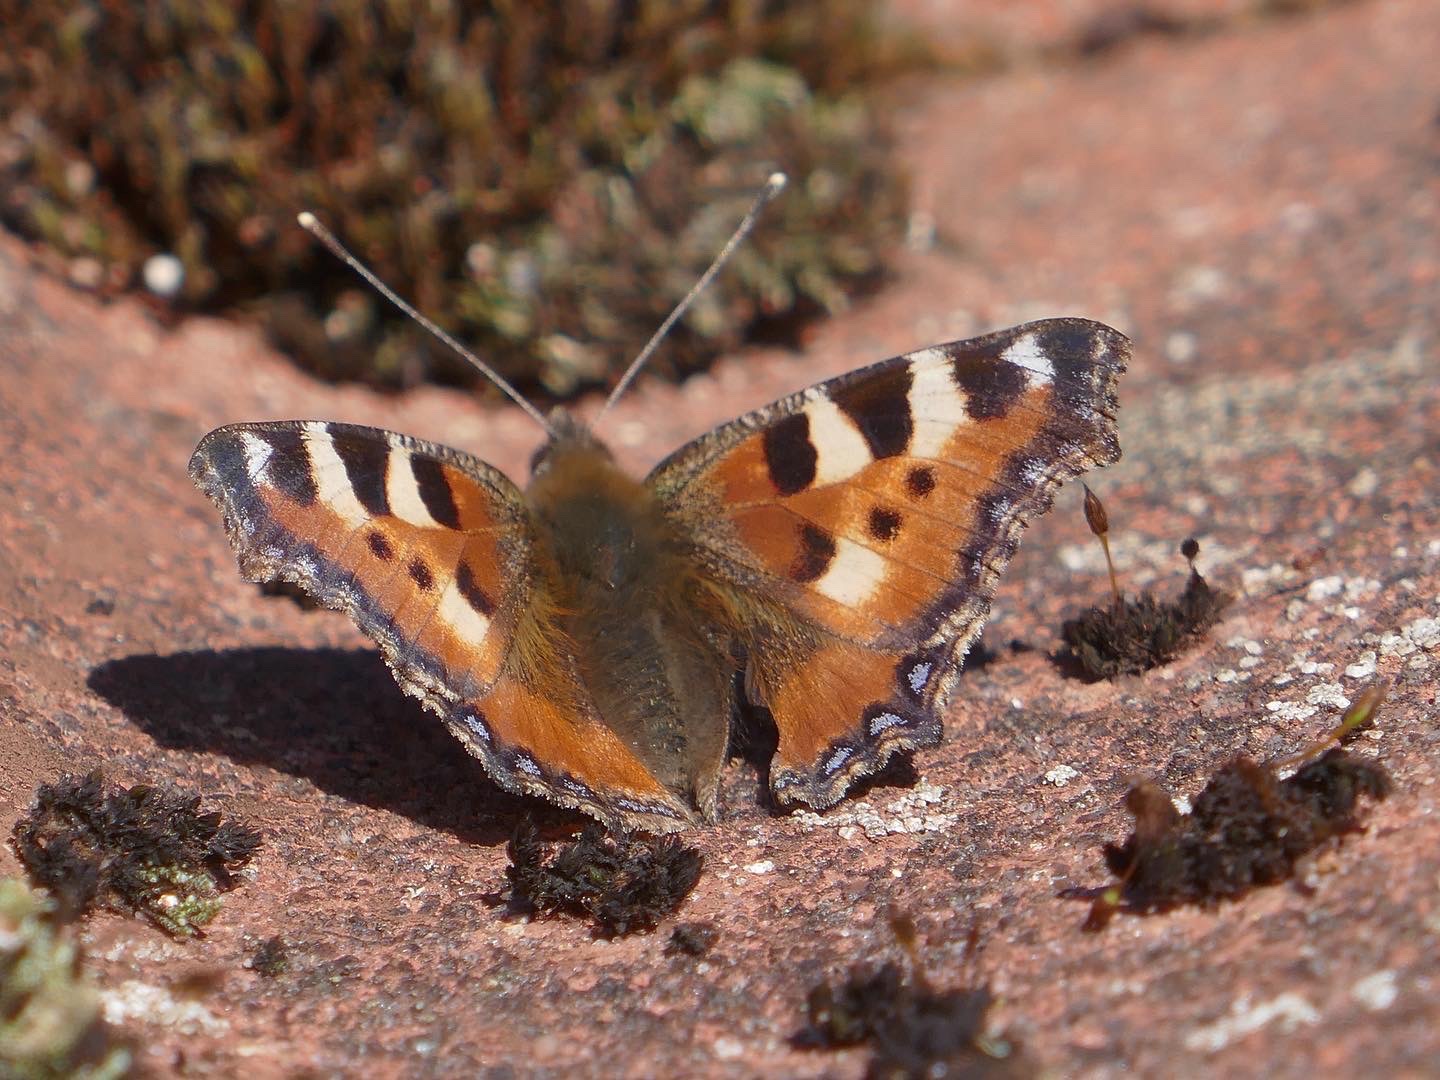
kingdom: Animalia
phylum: Arthropoda
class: Insecta
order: Lepidoptera
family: Nymphalidae
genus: Aglais
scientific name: Aglais urticae
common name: Nældens takvinge
